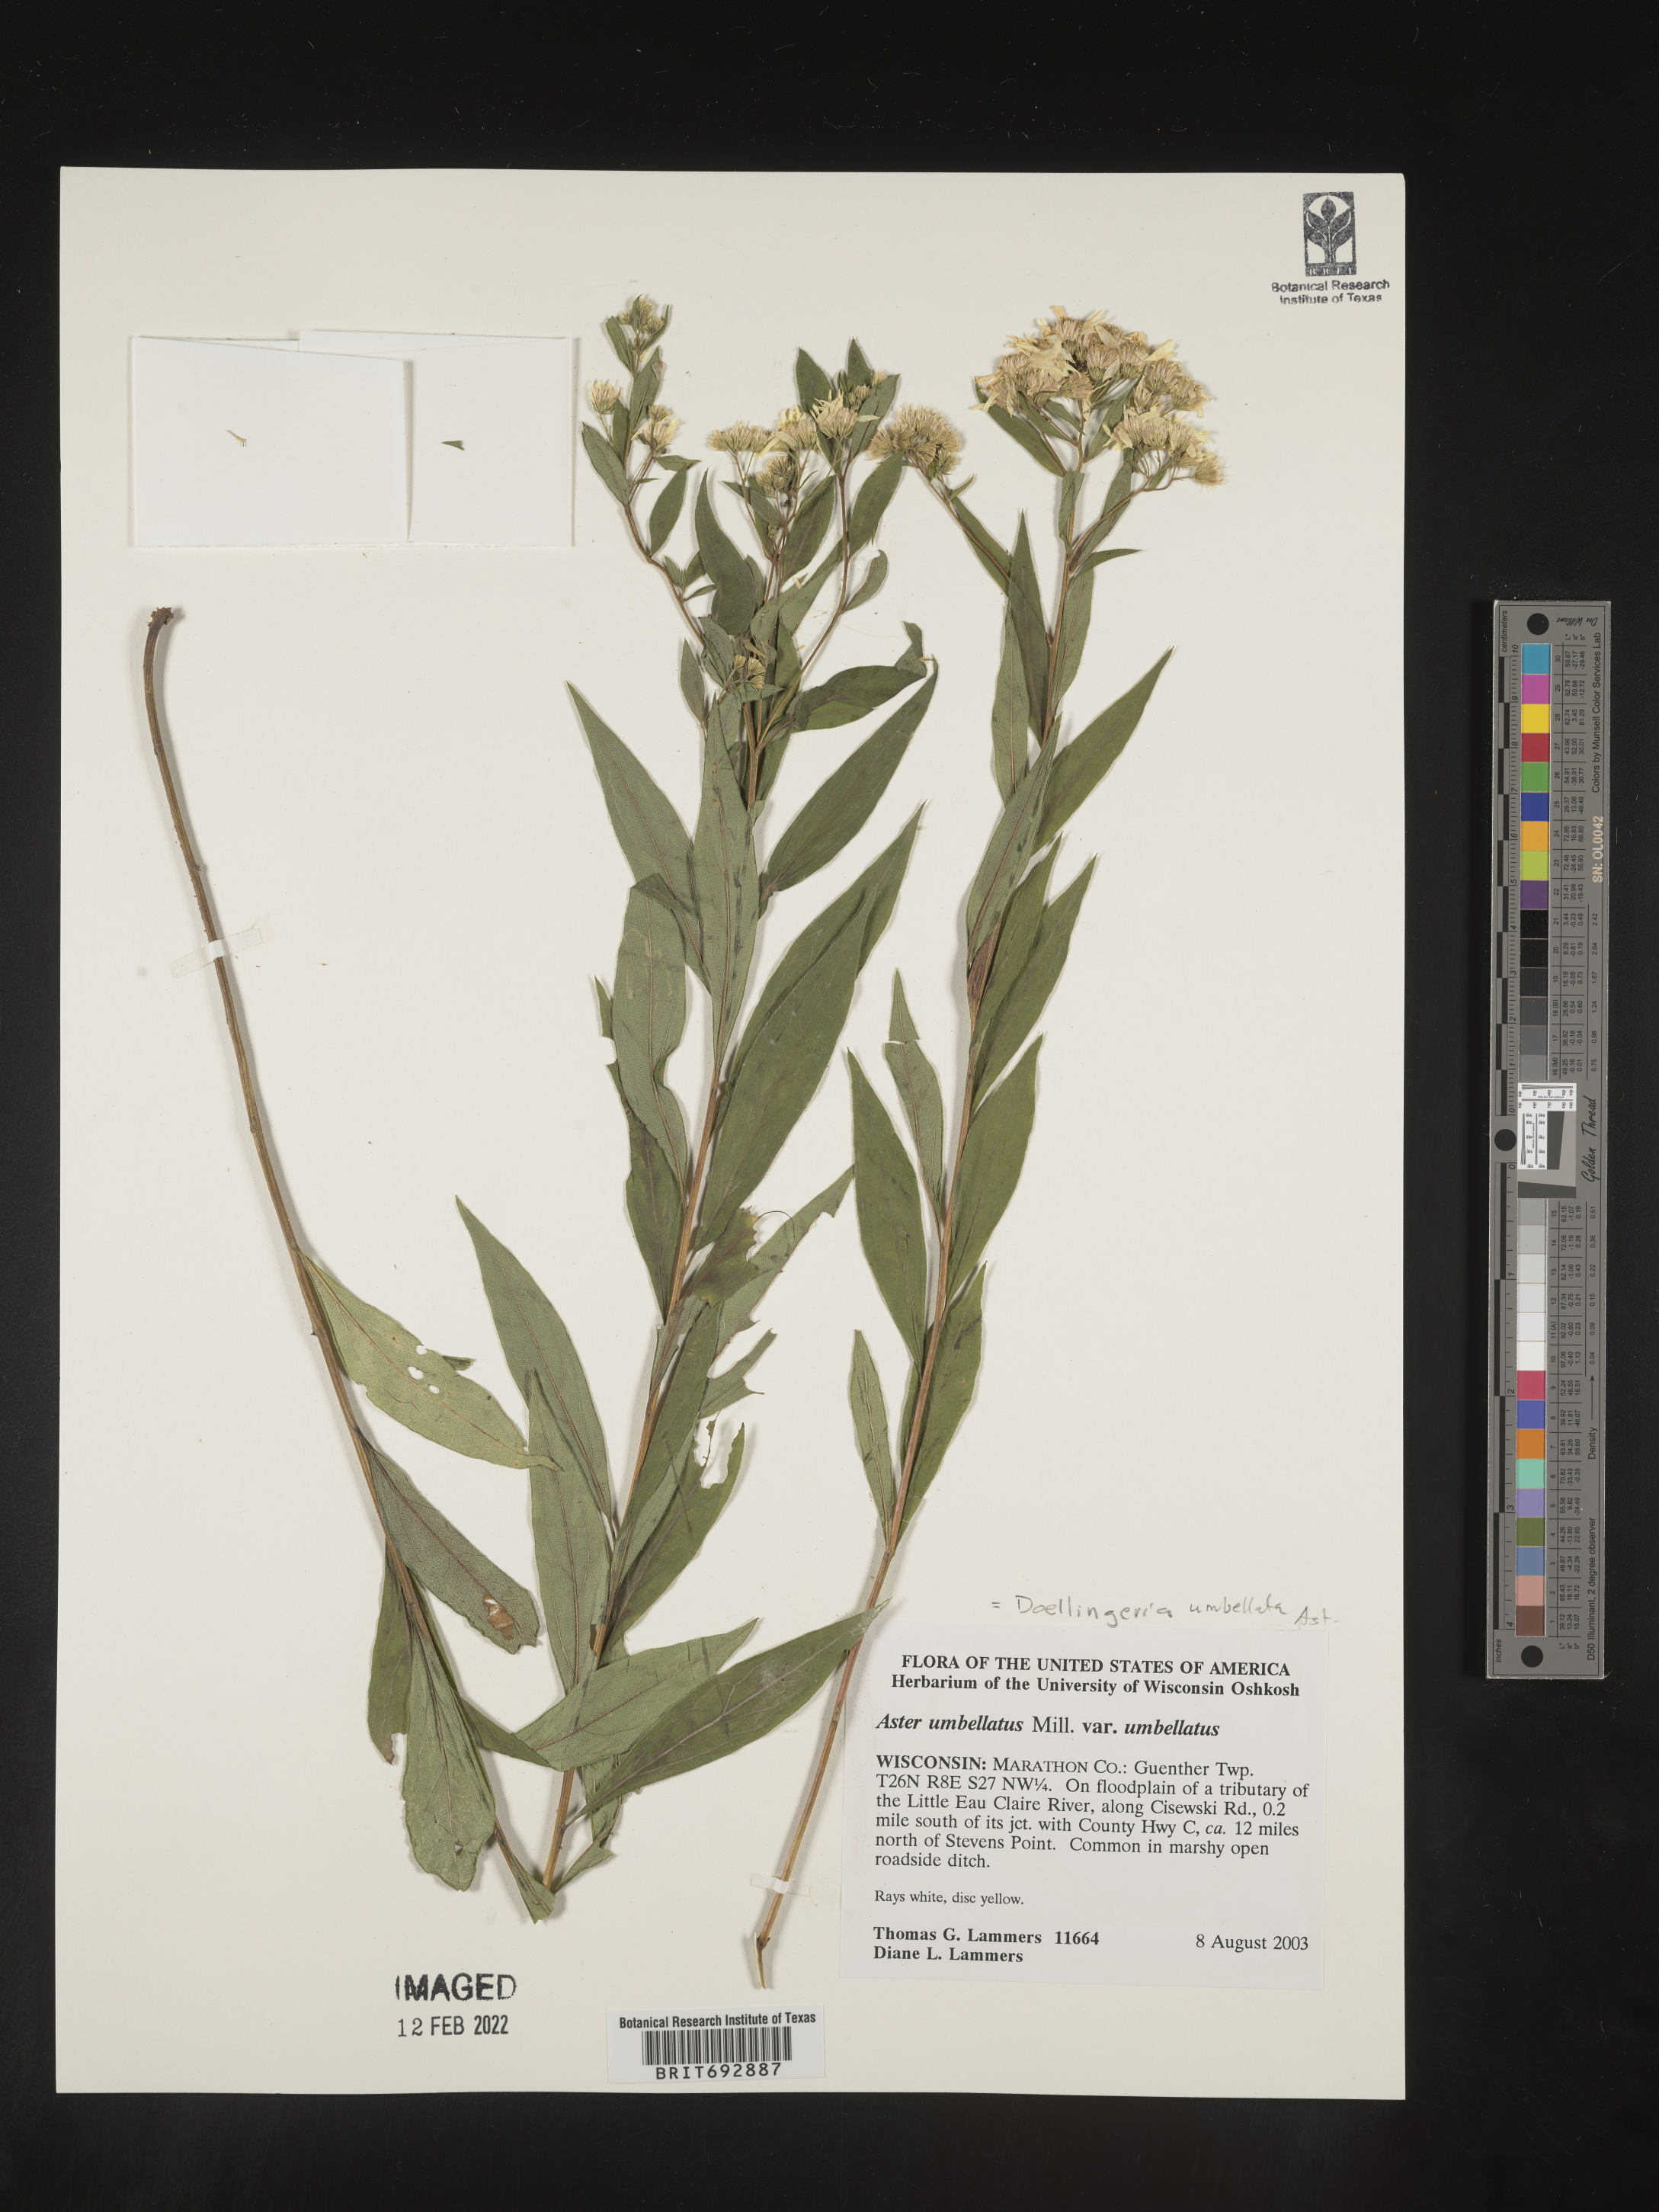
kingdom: Plantae
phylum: Tracheophyta
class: Magnoliopsida
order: Asterales
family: Asteraceae
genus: Doellingeria
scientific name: Doellingeria umbellata
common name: Flat-top white aster
